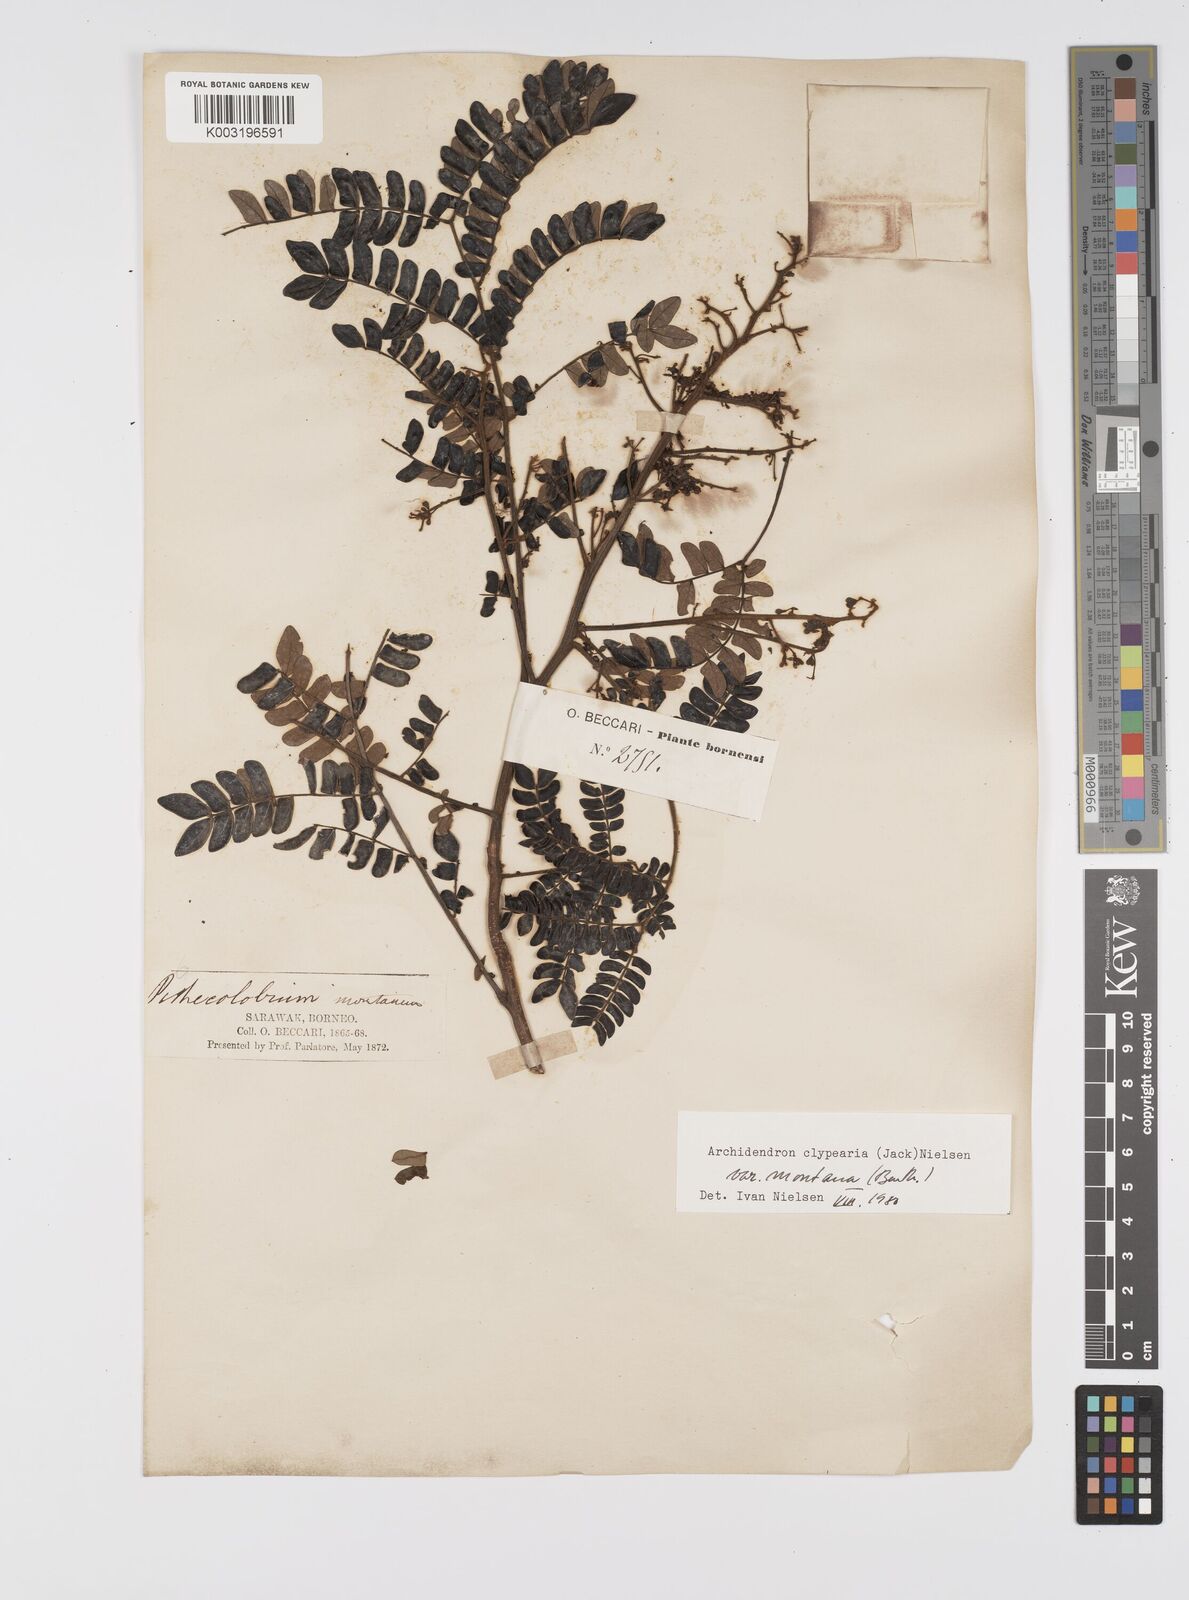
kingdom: Plantae
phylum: Tracheophyta
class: Magnoliopsida
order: Fabales
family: Fabaceae
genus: Archidendron
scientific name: Archidendron clypearia
